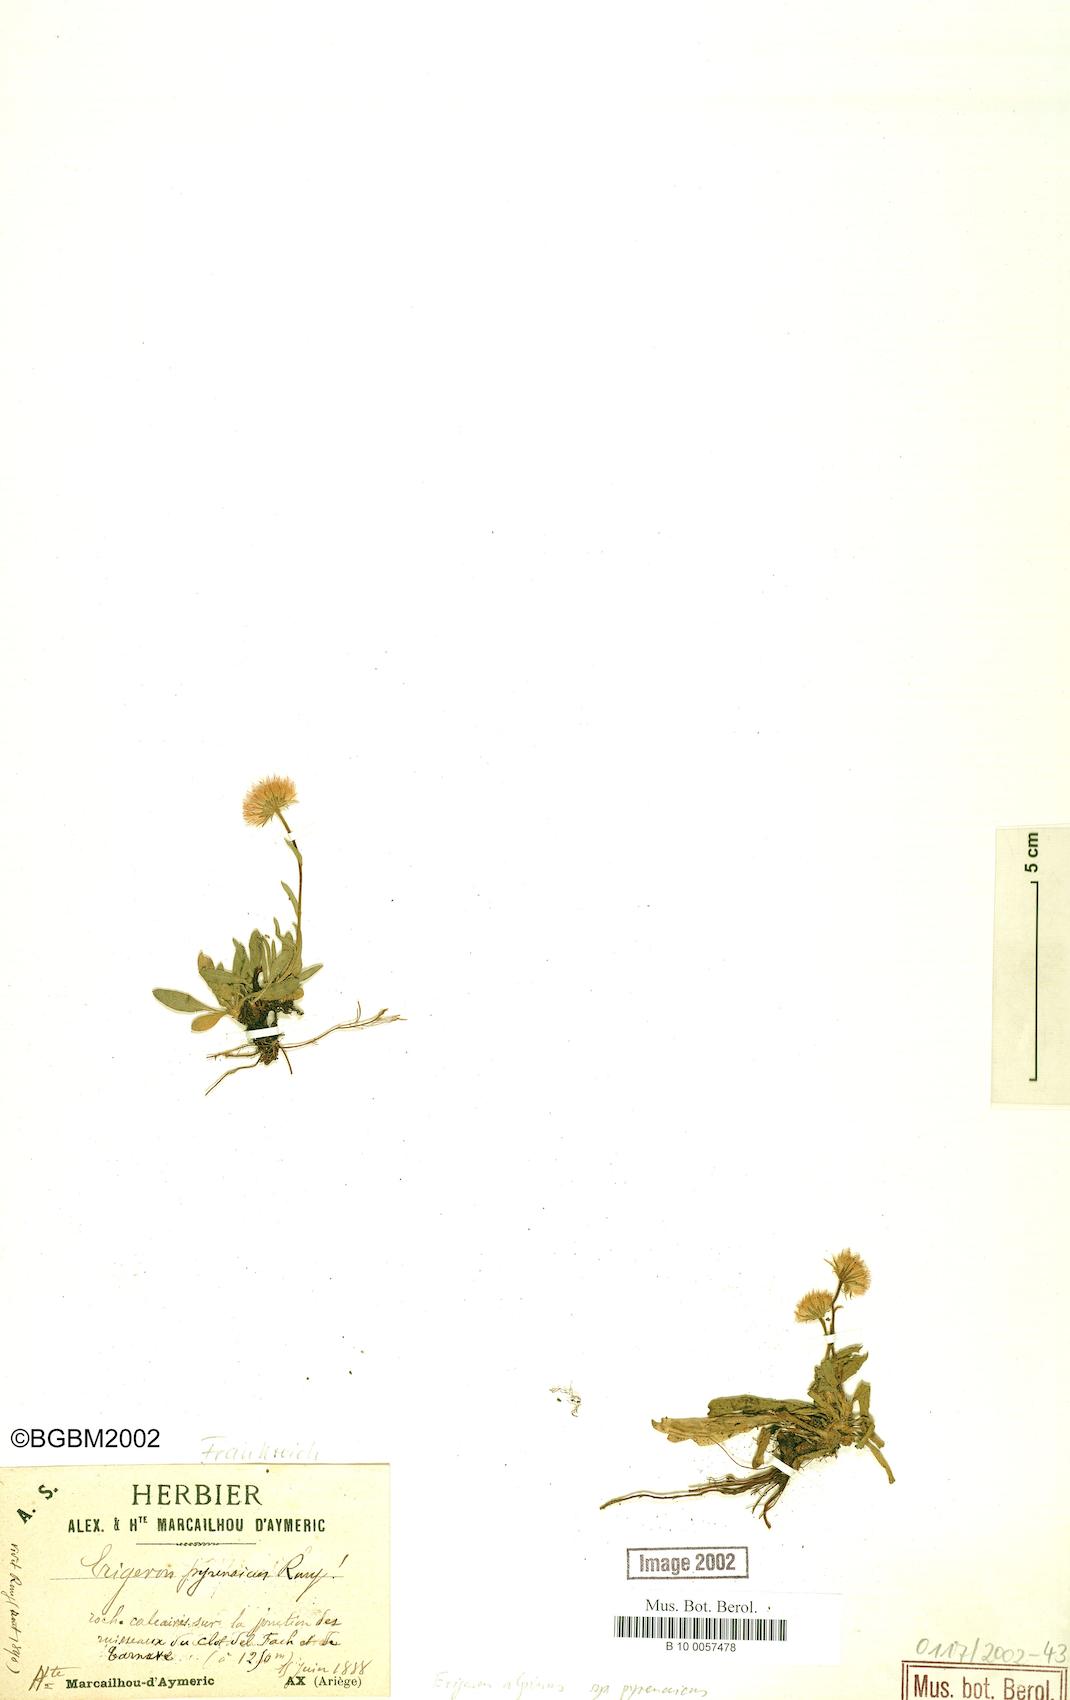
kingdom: Plantae
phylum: Tracheophyta
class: Magnoliopsida
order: Asterales
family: Asteraceae
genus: Erigeron
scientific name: Erigeron uniflorus
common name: Northern daisy
